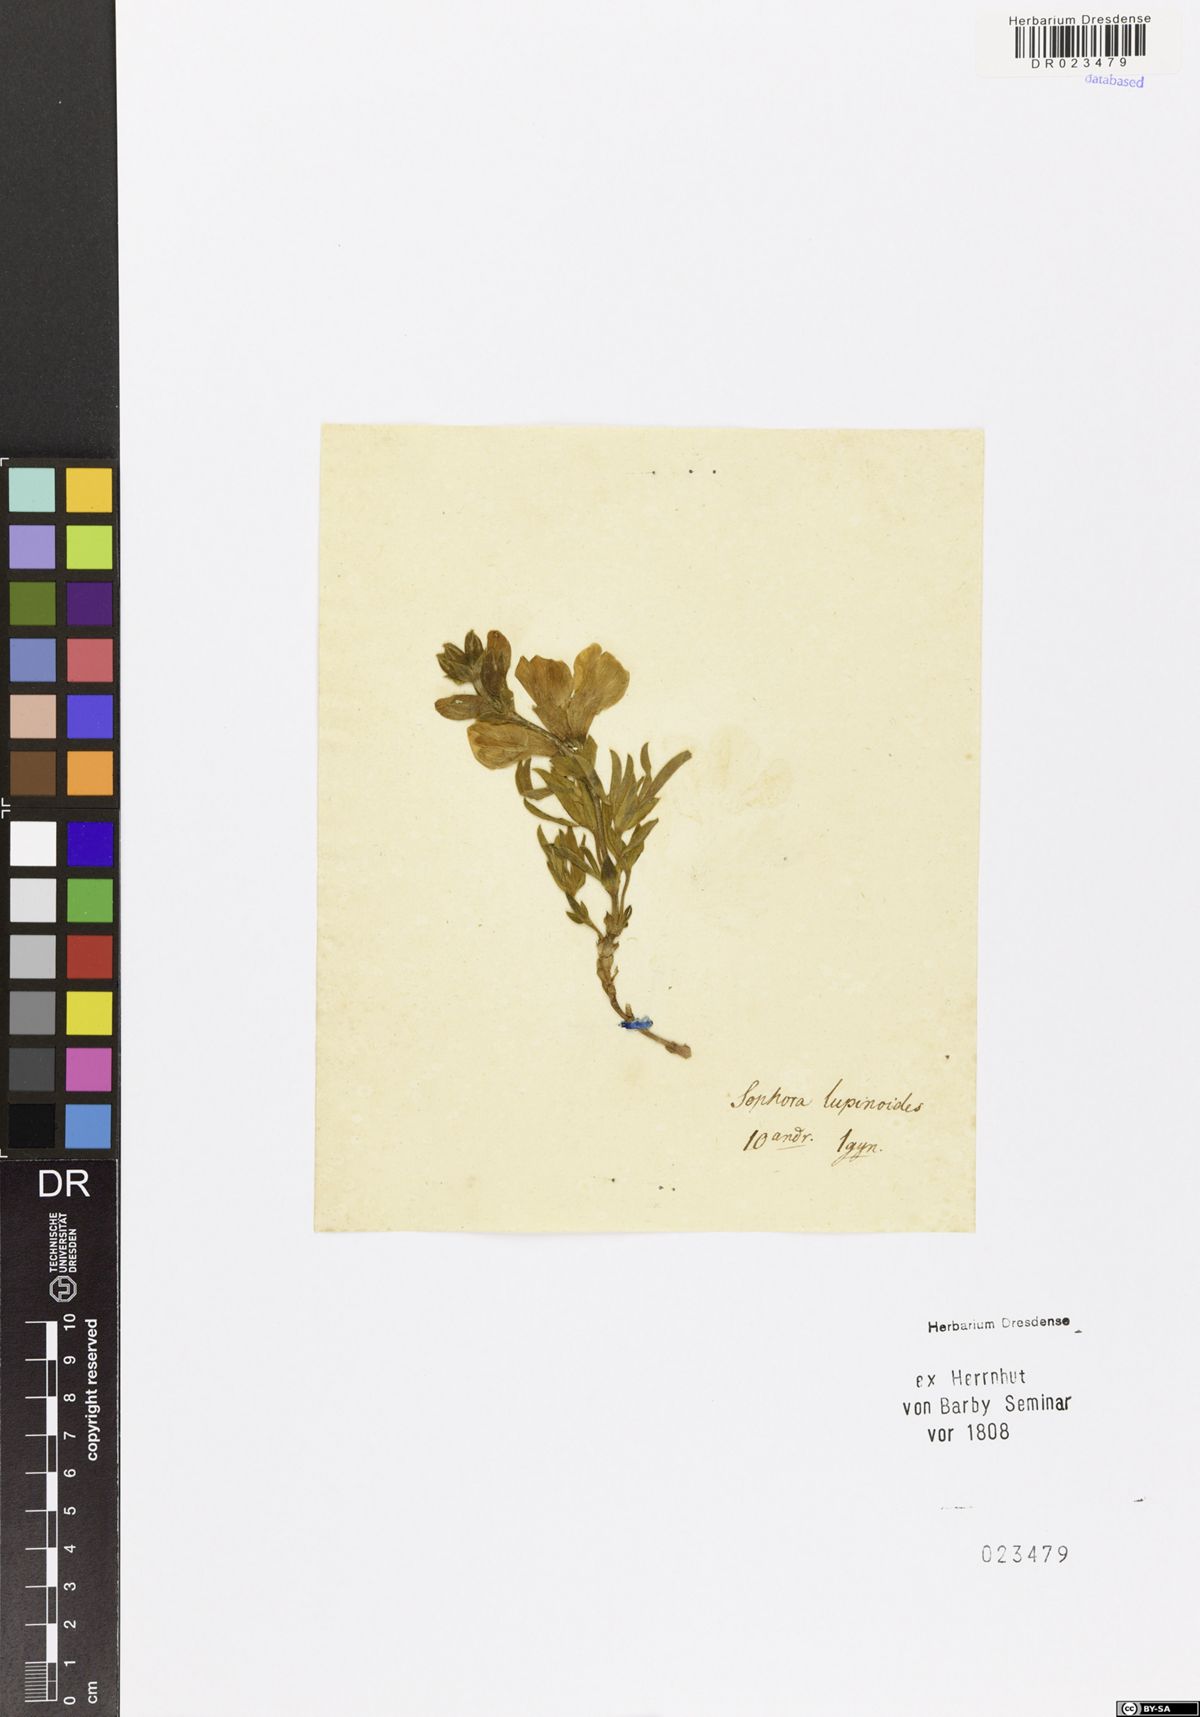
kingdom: Plantae
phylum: Tracheophyta
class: Magnoliopsida
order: Fabales
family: Fabaceae
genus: Thermopsis
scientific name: Thermopsis lanceolata
